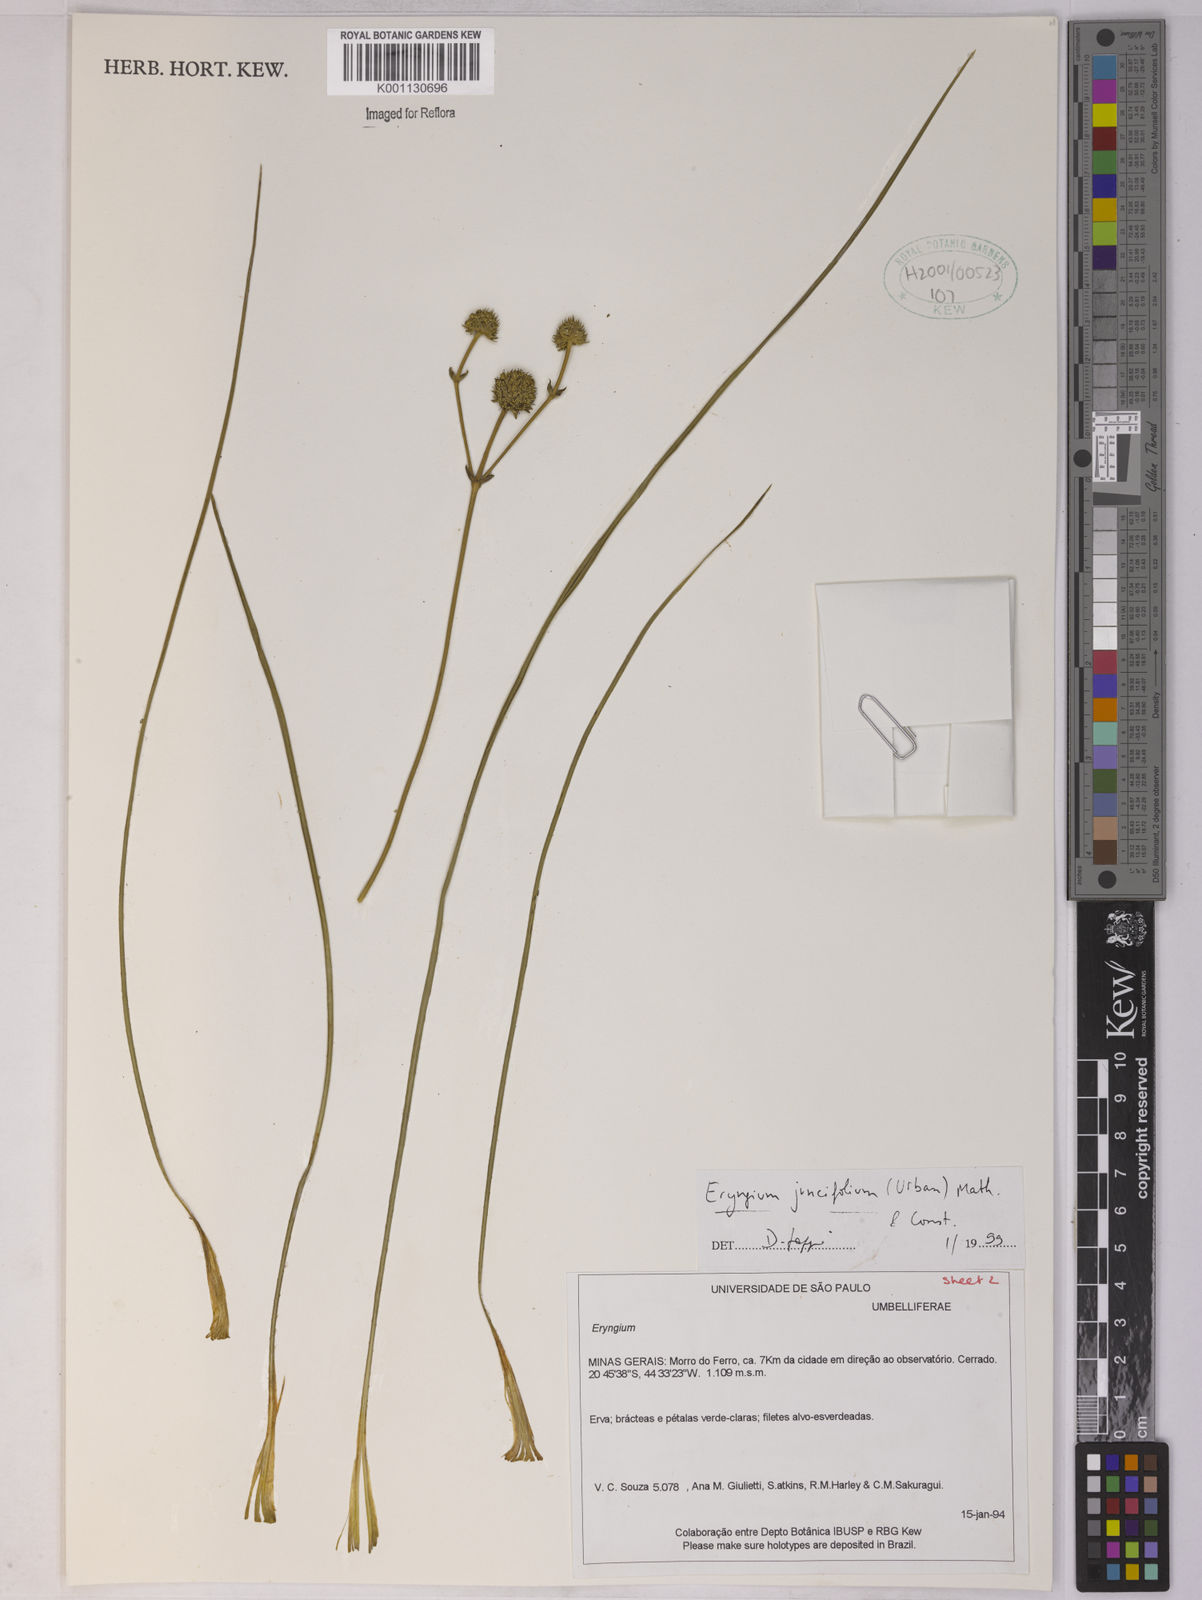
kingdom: Plantae
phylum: Tracheophyta
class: Magnoliopsida
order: Apiales
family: Apiaceae
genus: Eryngium
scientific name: Eryngium juncifolium
